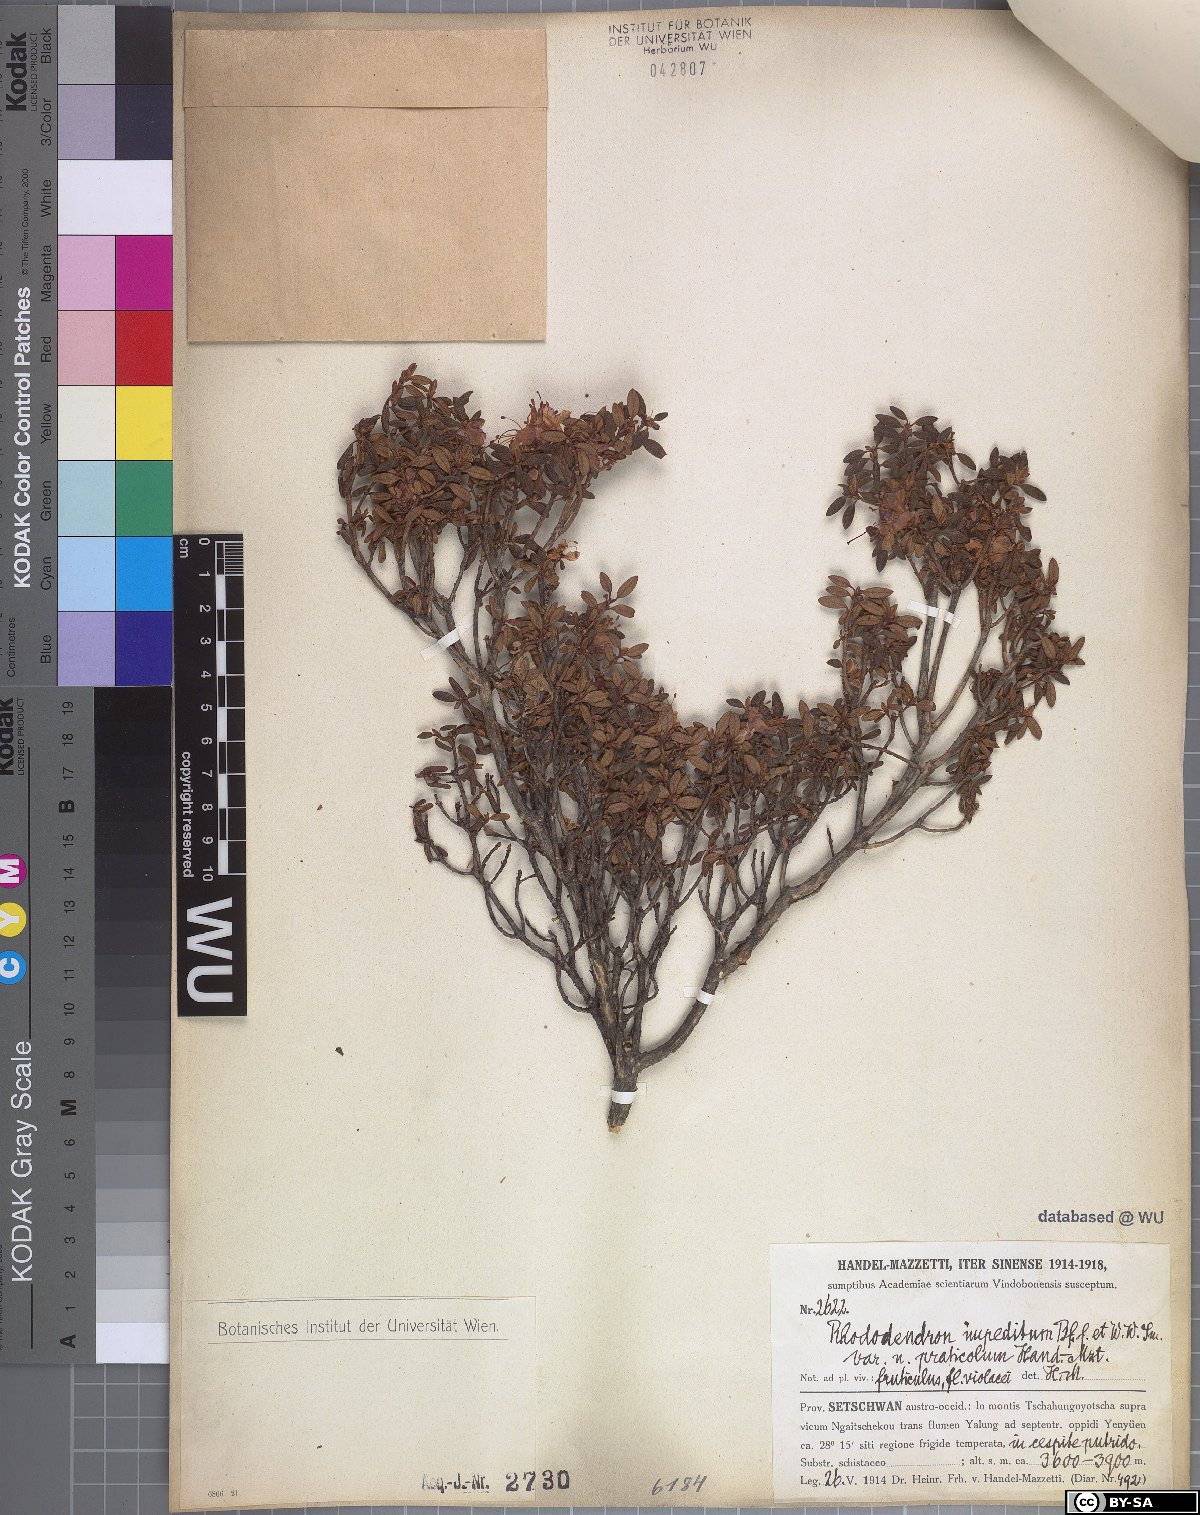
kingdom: Plantae
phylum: Tracheophyta
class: Magnoliopsida
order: Ericales
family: Ericaceae
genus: Rhododendron
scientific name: Rhododendron impeditum
